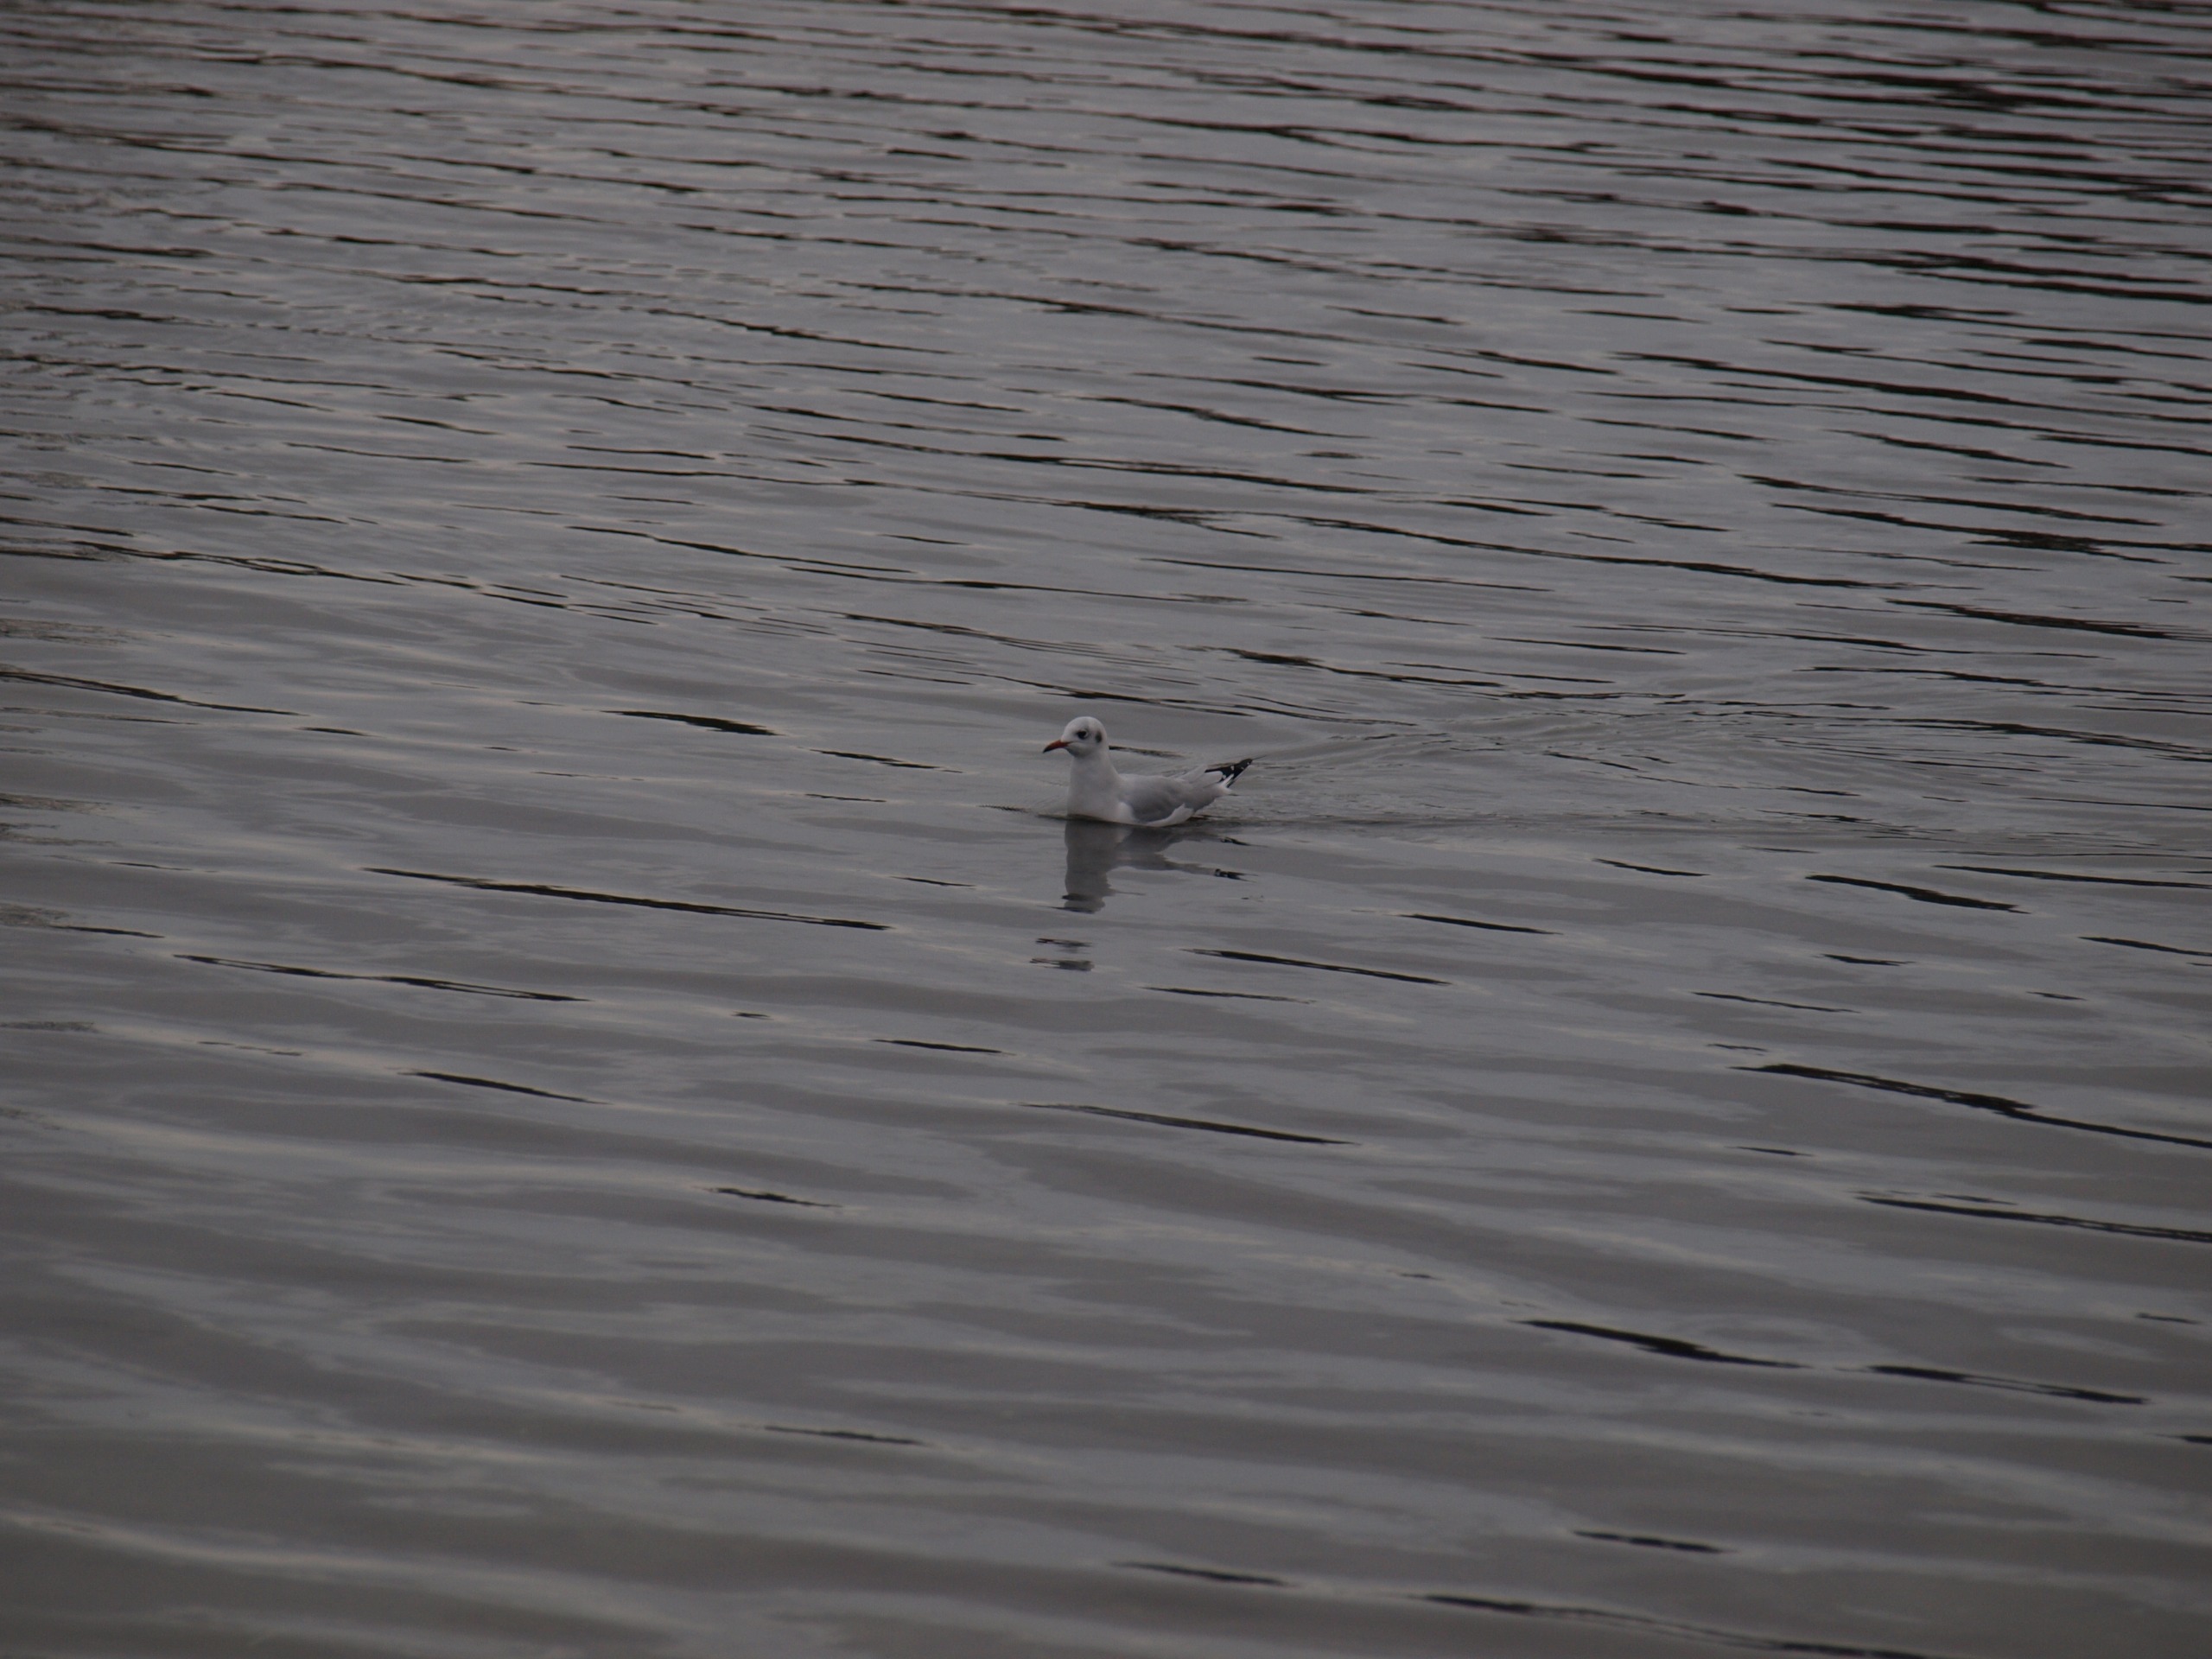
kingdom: Animalia
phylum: Chordata
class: Aves
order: Charadriiformes
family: Laridae
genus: Chroicocephalus
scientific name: Chroicocephalus ridibundus
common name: Hættemåge
